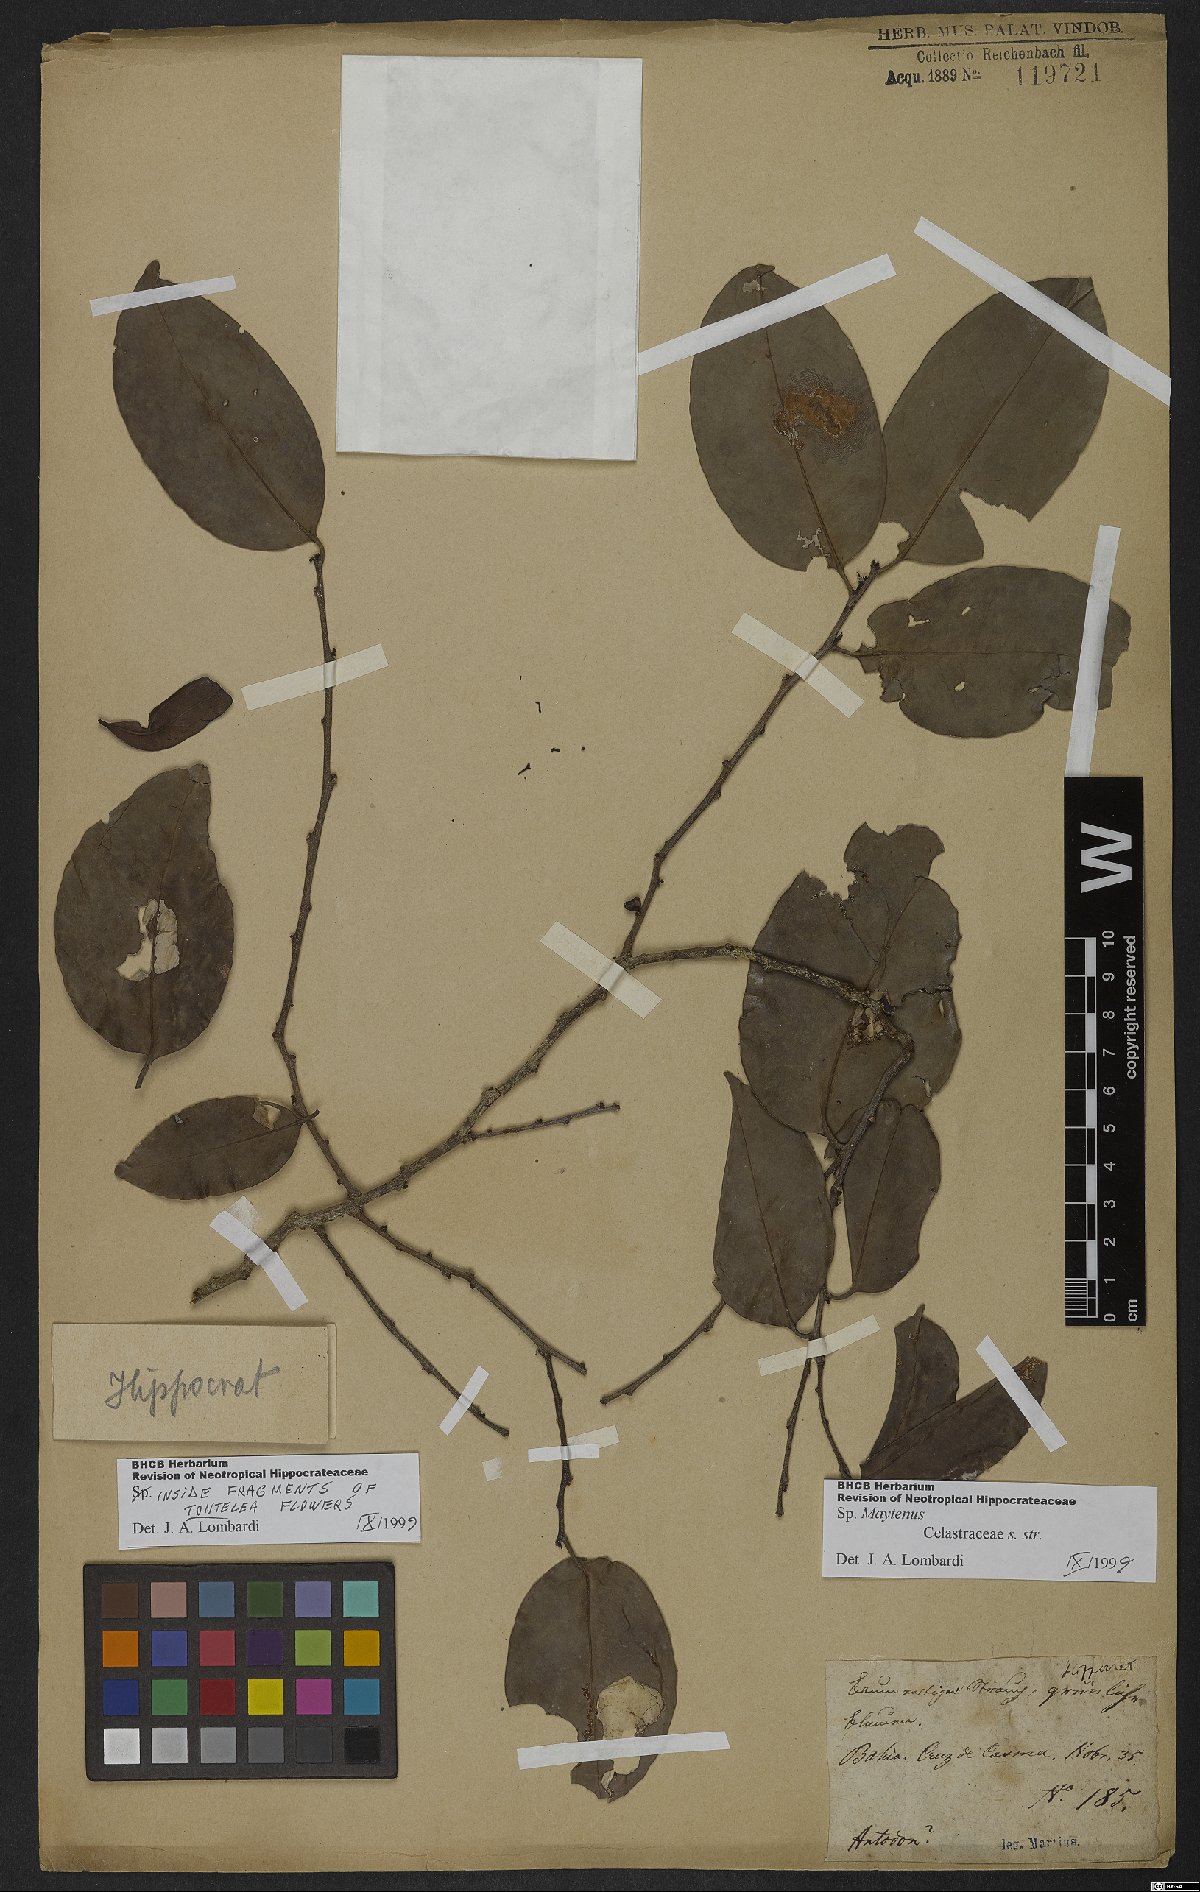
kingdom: Plantae
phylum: Tracheophyta
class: Magnoliopsida
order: Celastrales
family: Celastraceae
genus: Maytenus
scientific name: Maytenus
